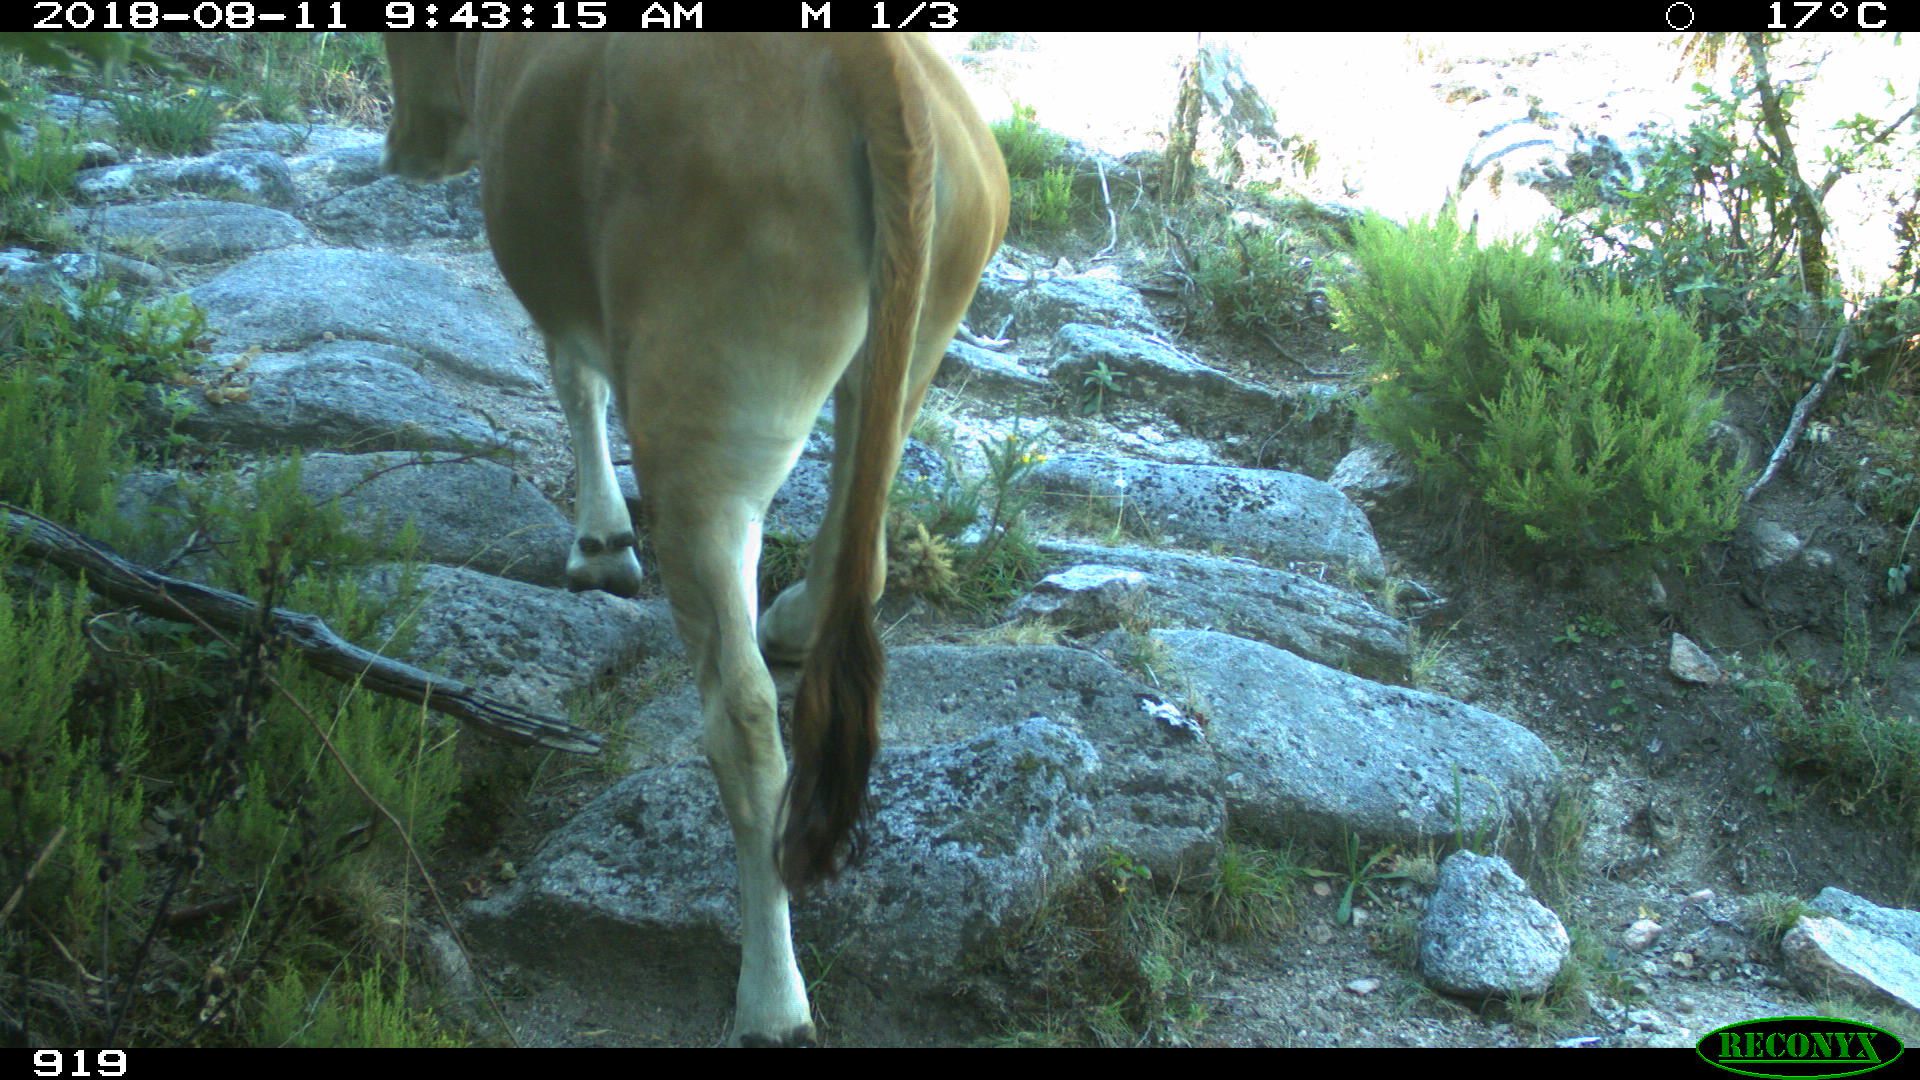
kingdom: Animalia
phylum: Chordata
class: Mammalia
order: Artiodactyla
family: Bovidae
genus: Bos
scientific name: Bos taurus
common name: Domesticated cattle
